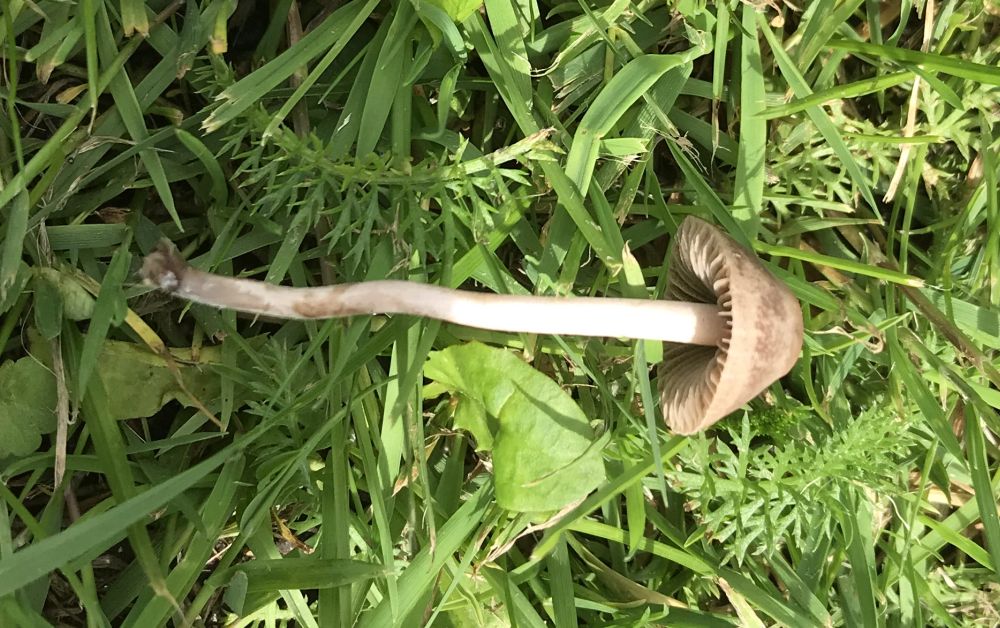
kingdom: Fungi
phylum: Basidiomycota
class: Agaricomycetes
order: Agaricales
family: Bolbitiaceae
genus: Panaeolina
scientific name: Panaeolina foenisecii
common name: høslætsvamp
